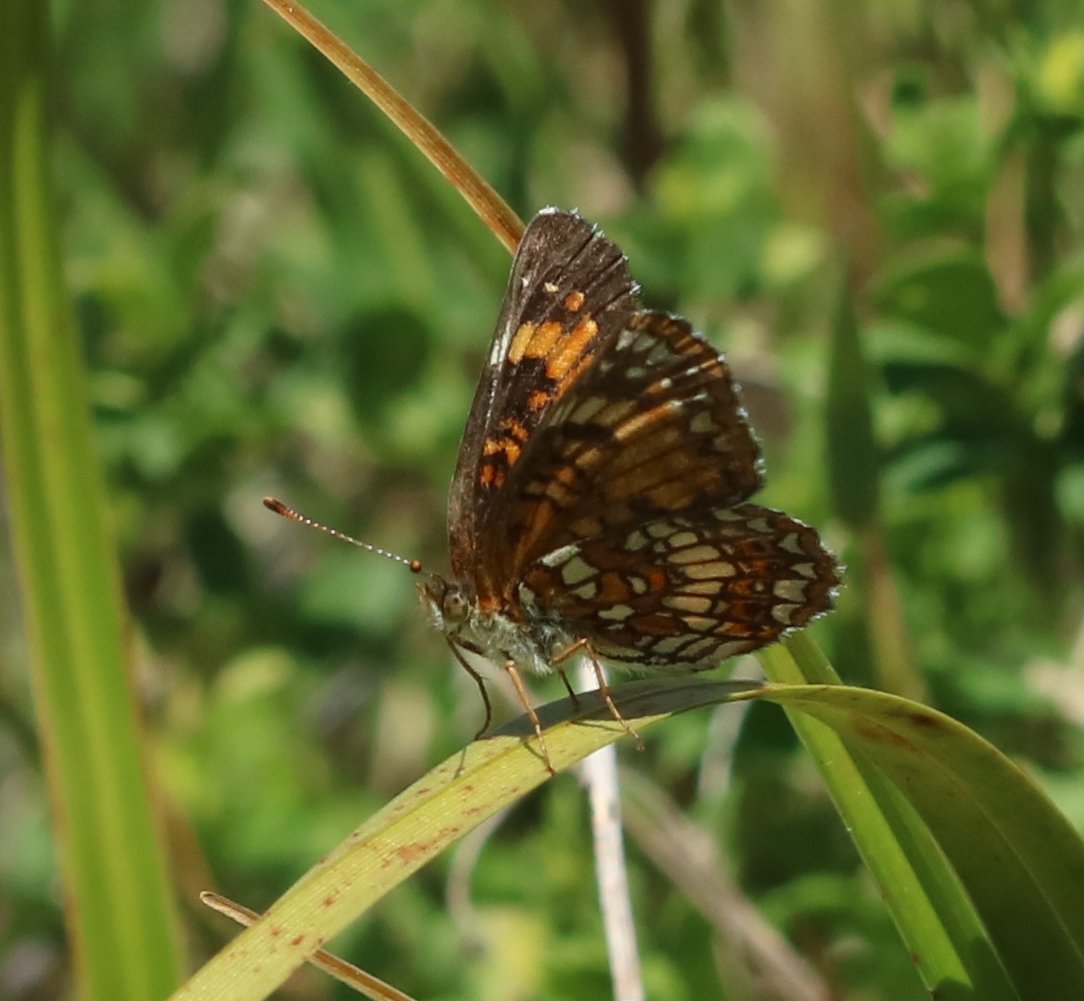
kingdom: Animalia
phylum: Arthropoda
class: Insecta
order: Lepidoptera
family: Nymphalidae
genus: Chlosyne
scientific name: Chlosyne harrisii
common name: Harris's Checkerspot
